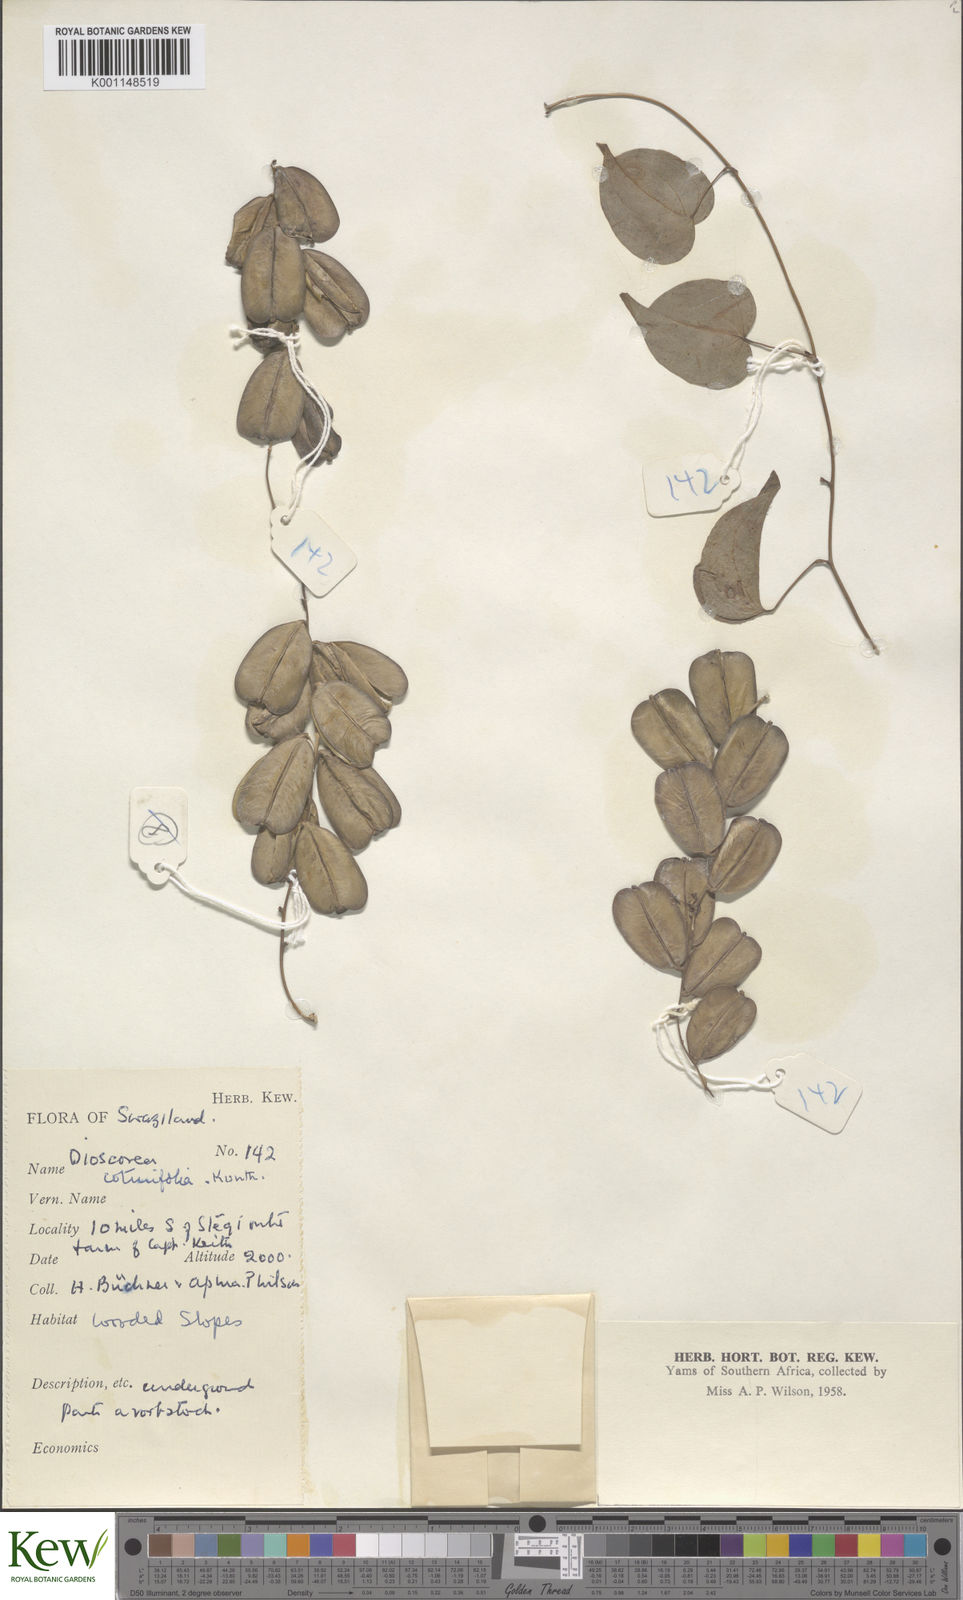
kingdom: Plantae
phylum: Tracheophyta
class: Liliopsida
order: Dioscoreales
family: Dioscoreaceae
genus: Dioscorea
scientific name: Dioscorea cotinifolia
